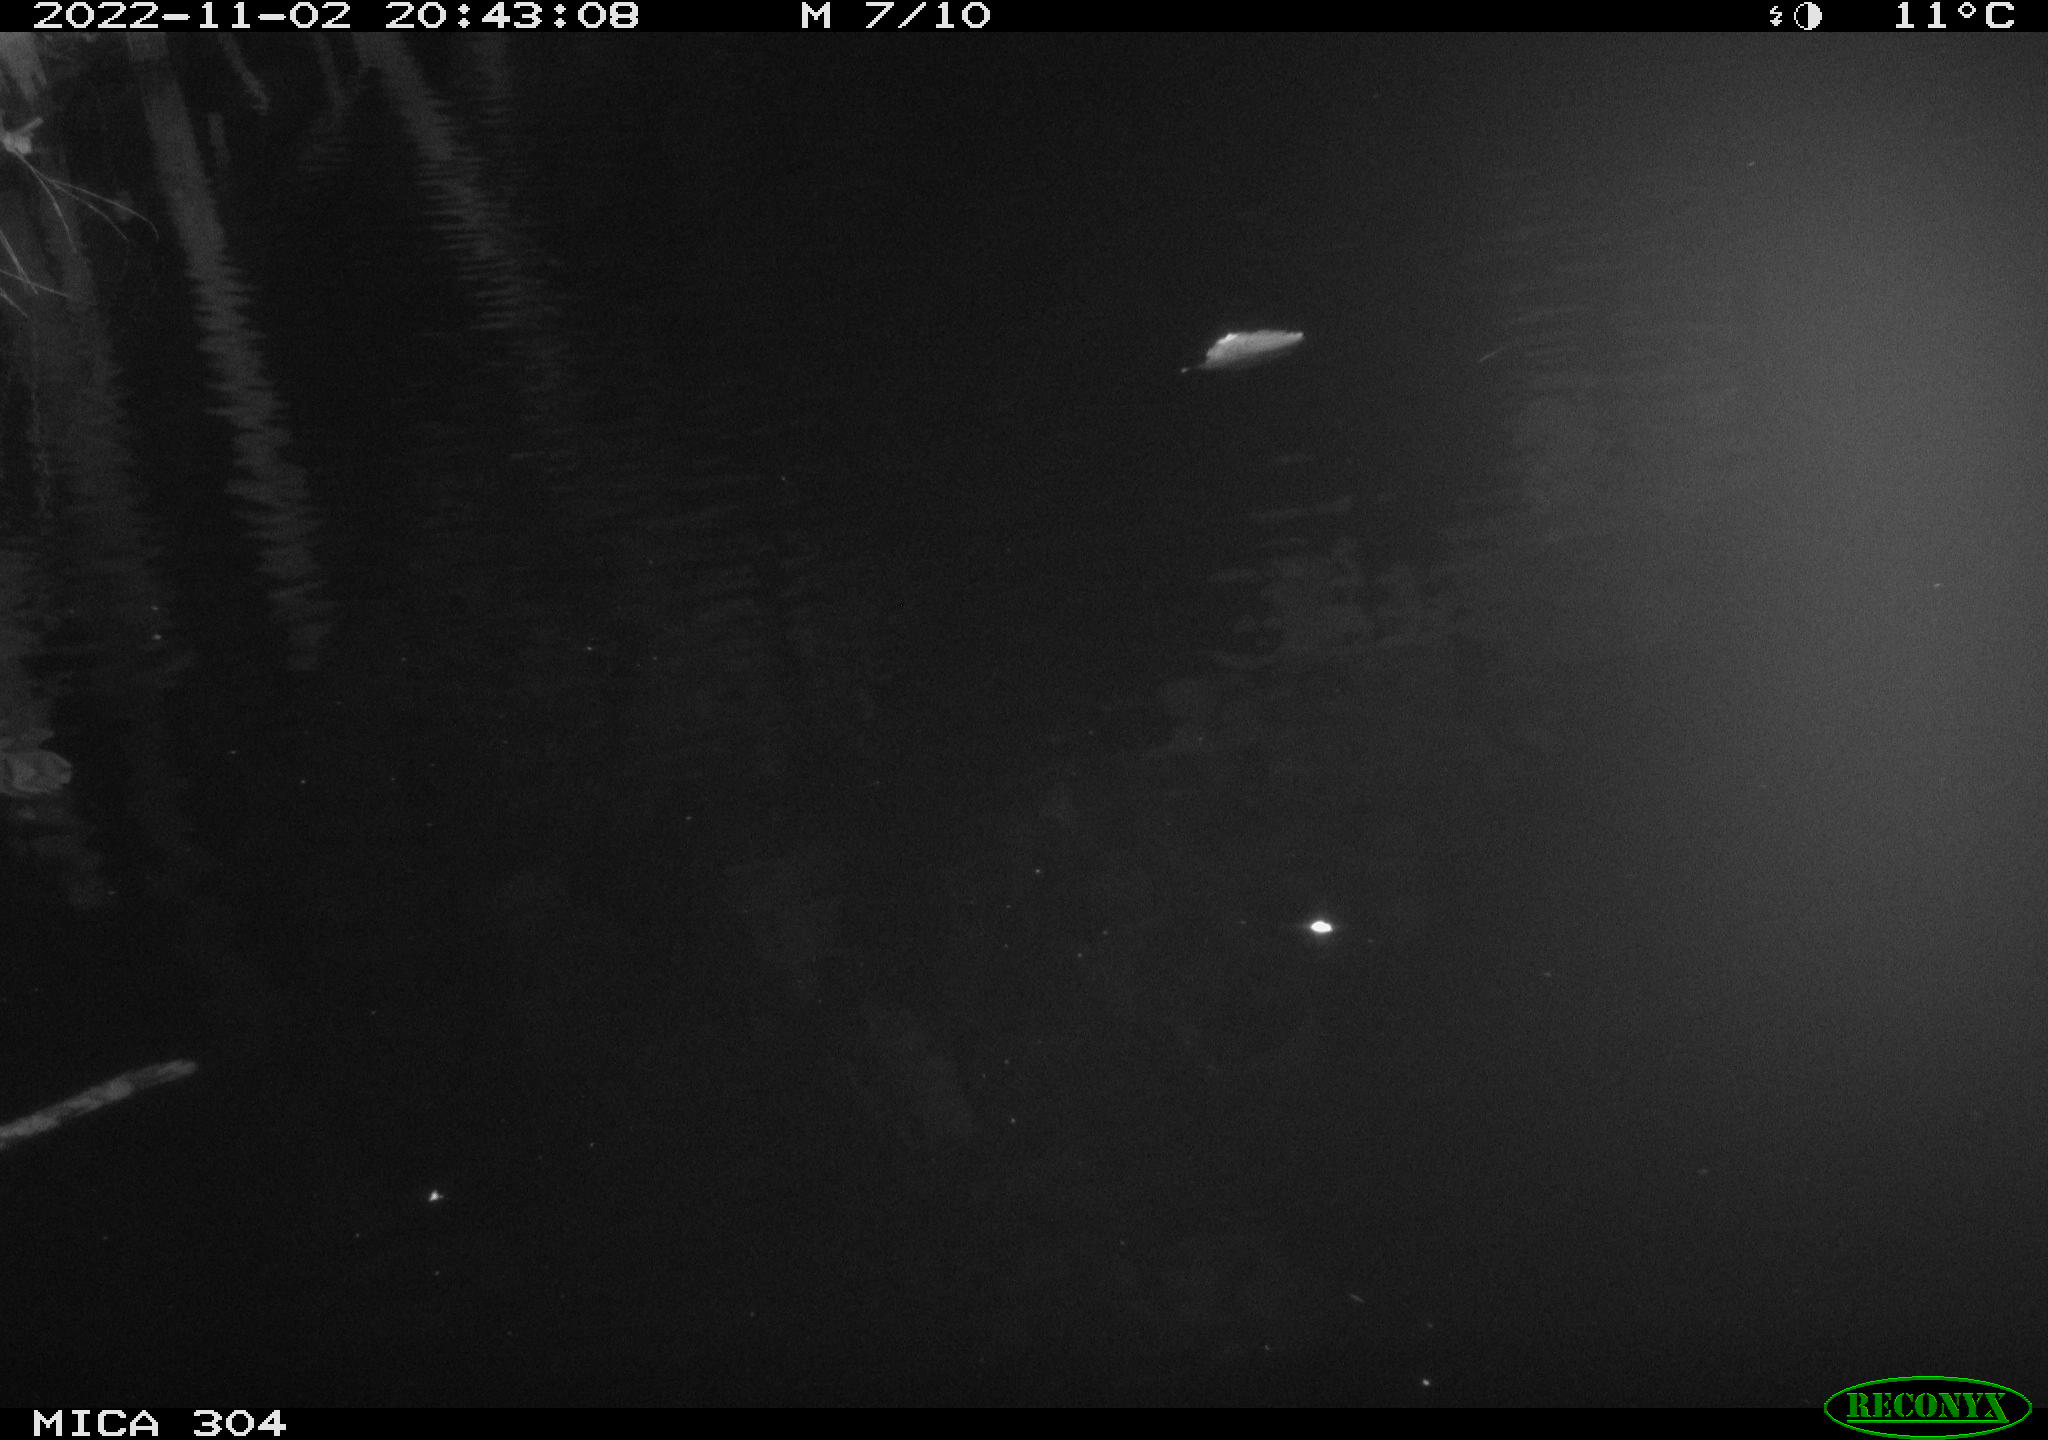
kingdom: Animalia
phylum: Chordata
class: Mammalia
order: Rodentia
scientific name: Rodentia
